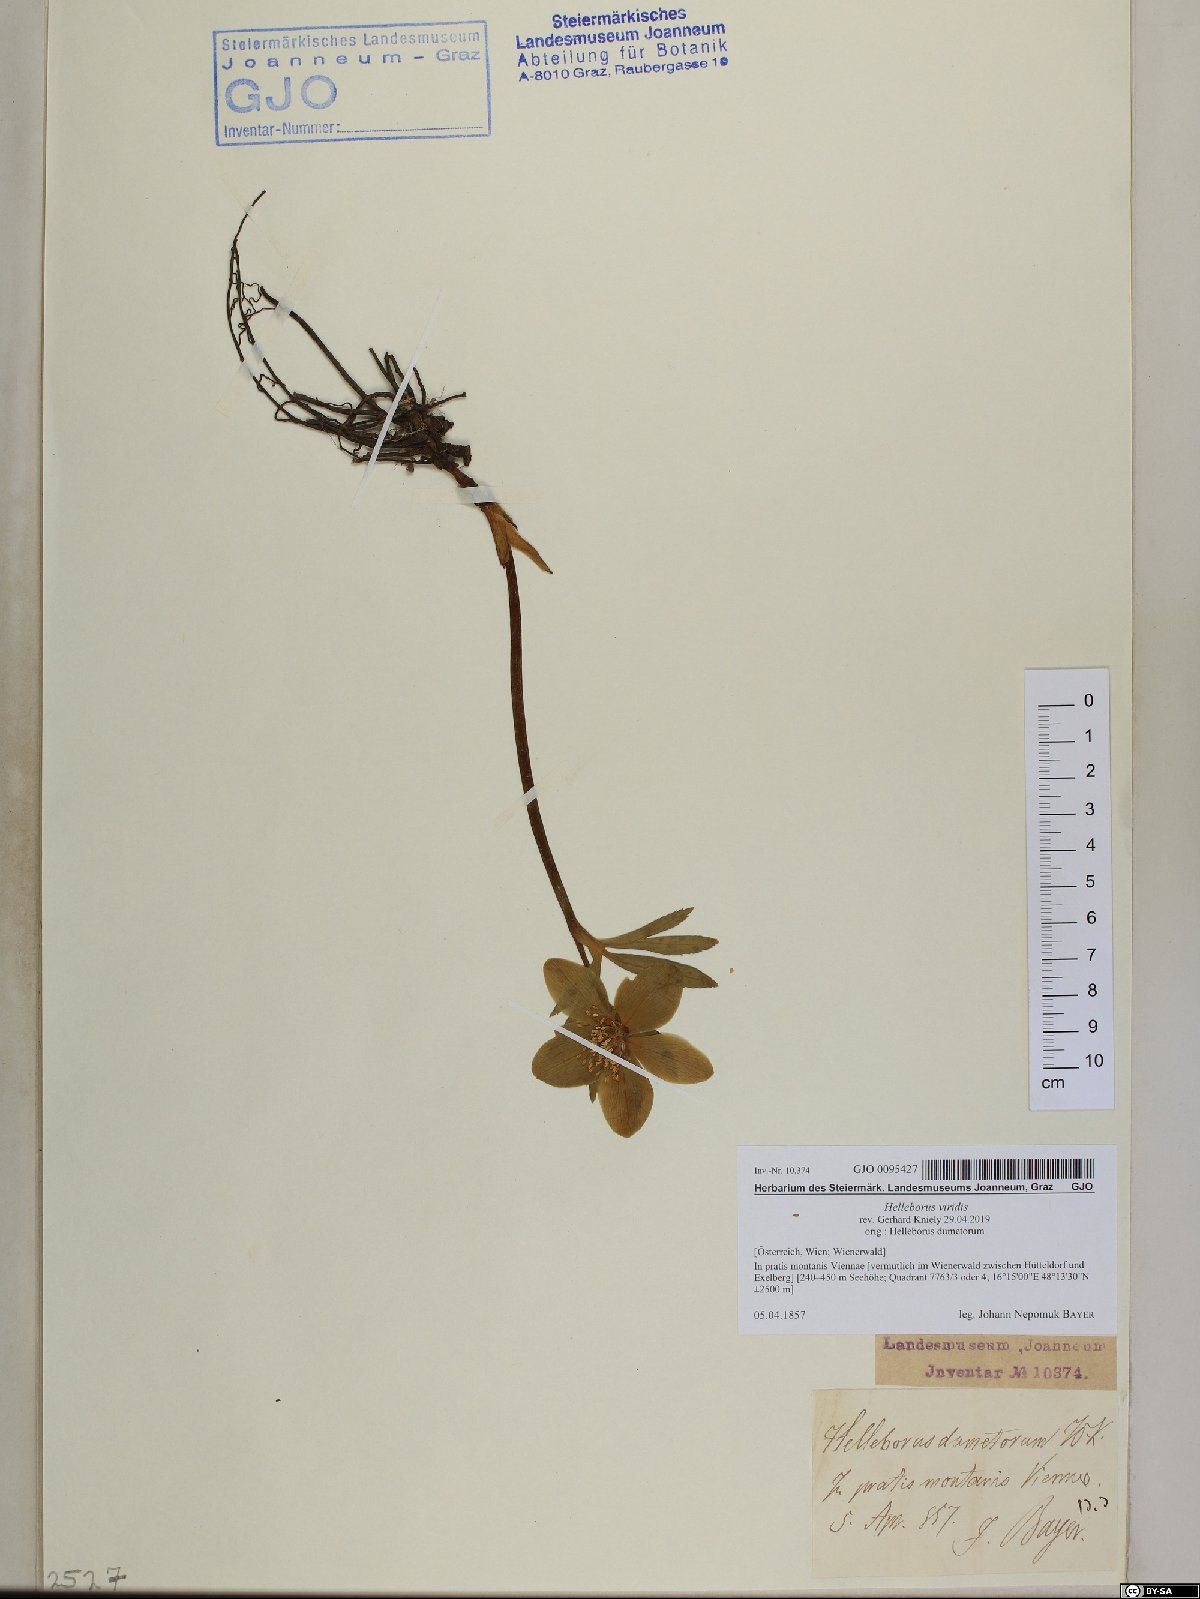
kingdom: Plantae
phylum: Tracheophyta
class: Magnoliopsida
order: Ranunculales
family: Ranunculaceae
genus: Helleborus
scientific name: Helleborus viridis
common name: Green hellebore
